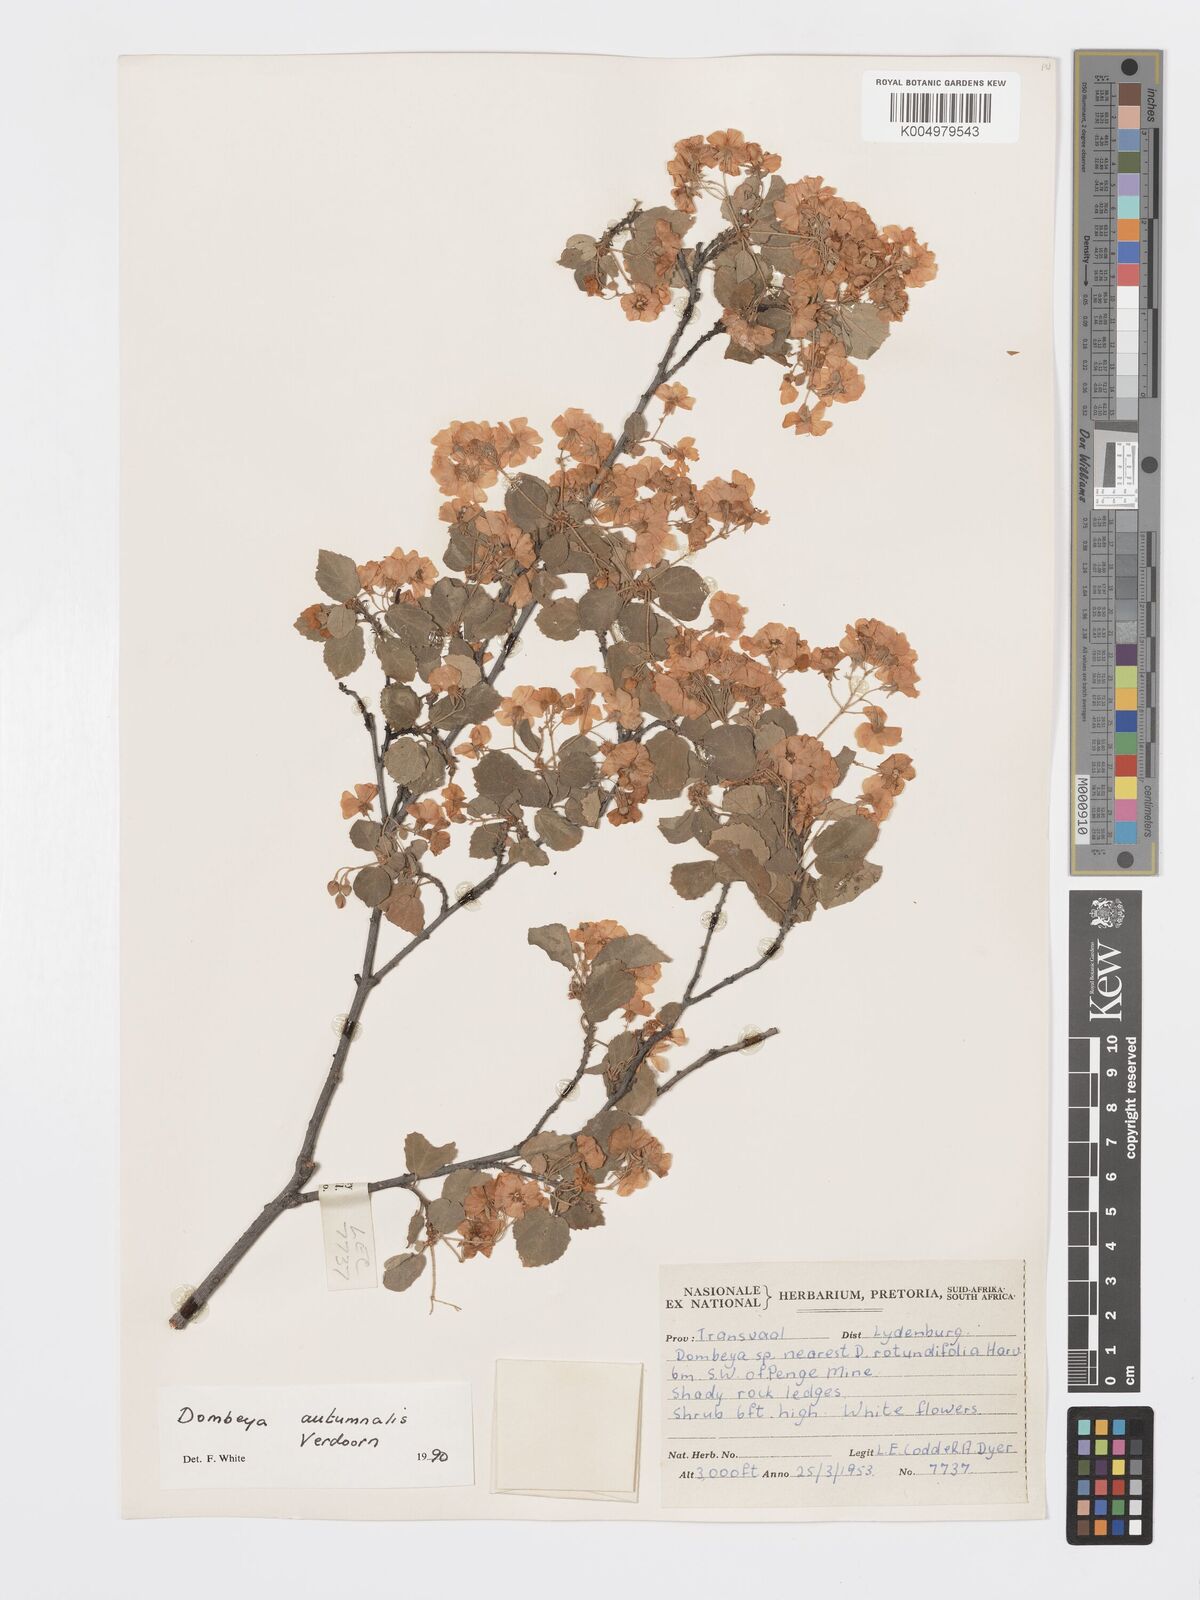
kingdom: Plantae
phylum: Tracheophyta
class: Magnoliopsida
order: Malvales
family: Malvaceae
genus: Dombeya
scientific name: Dombeya autumnalis
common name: Rock dombeya
